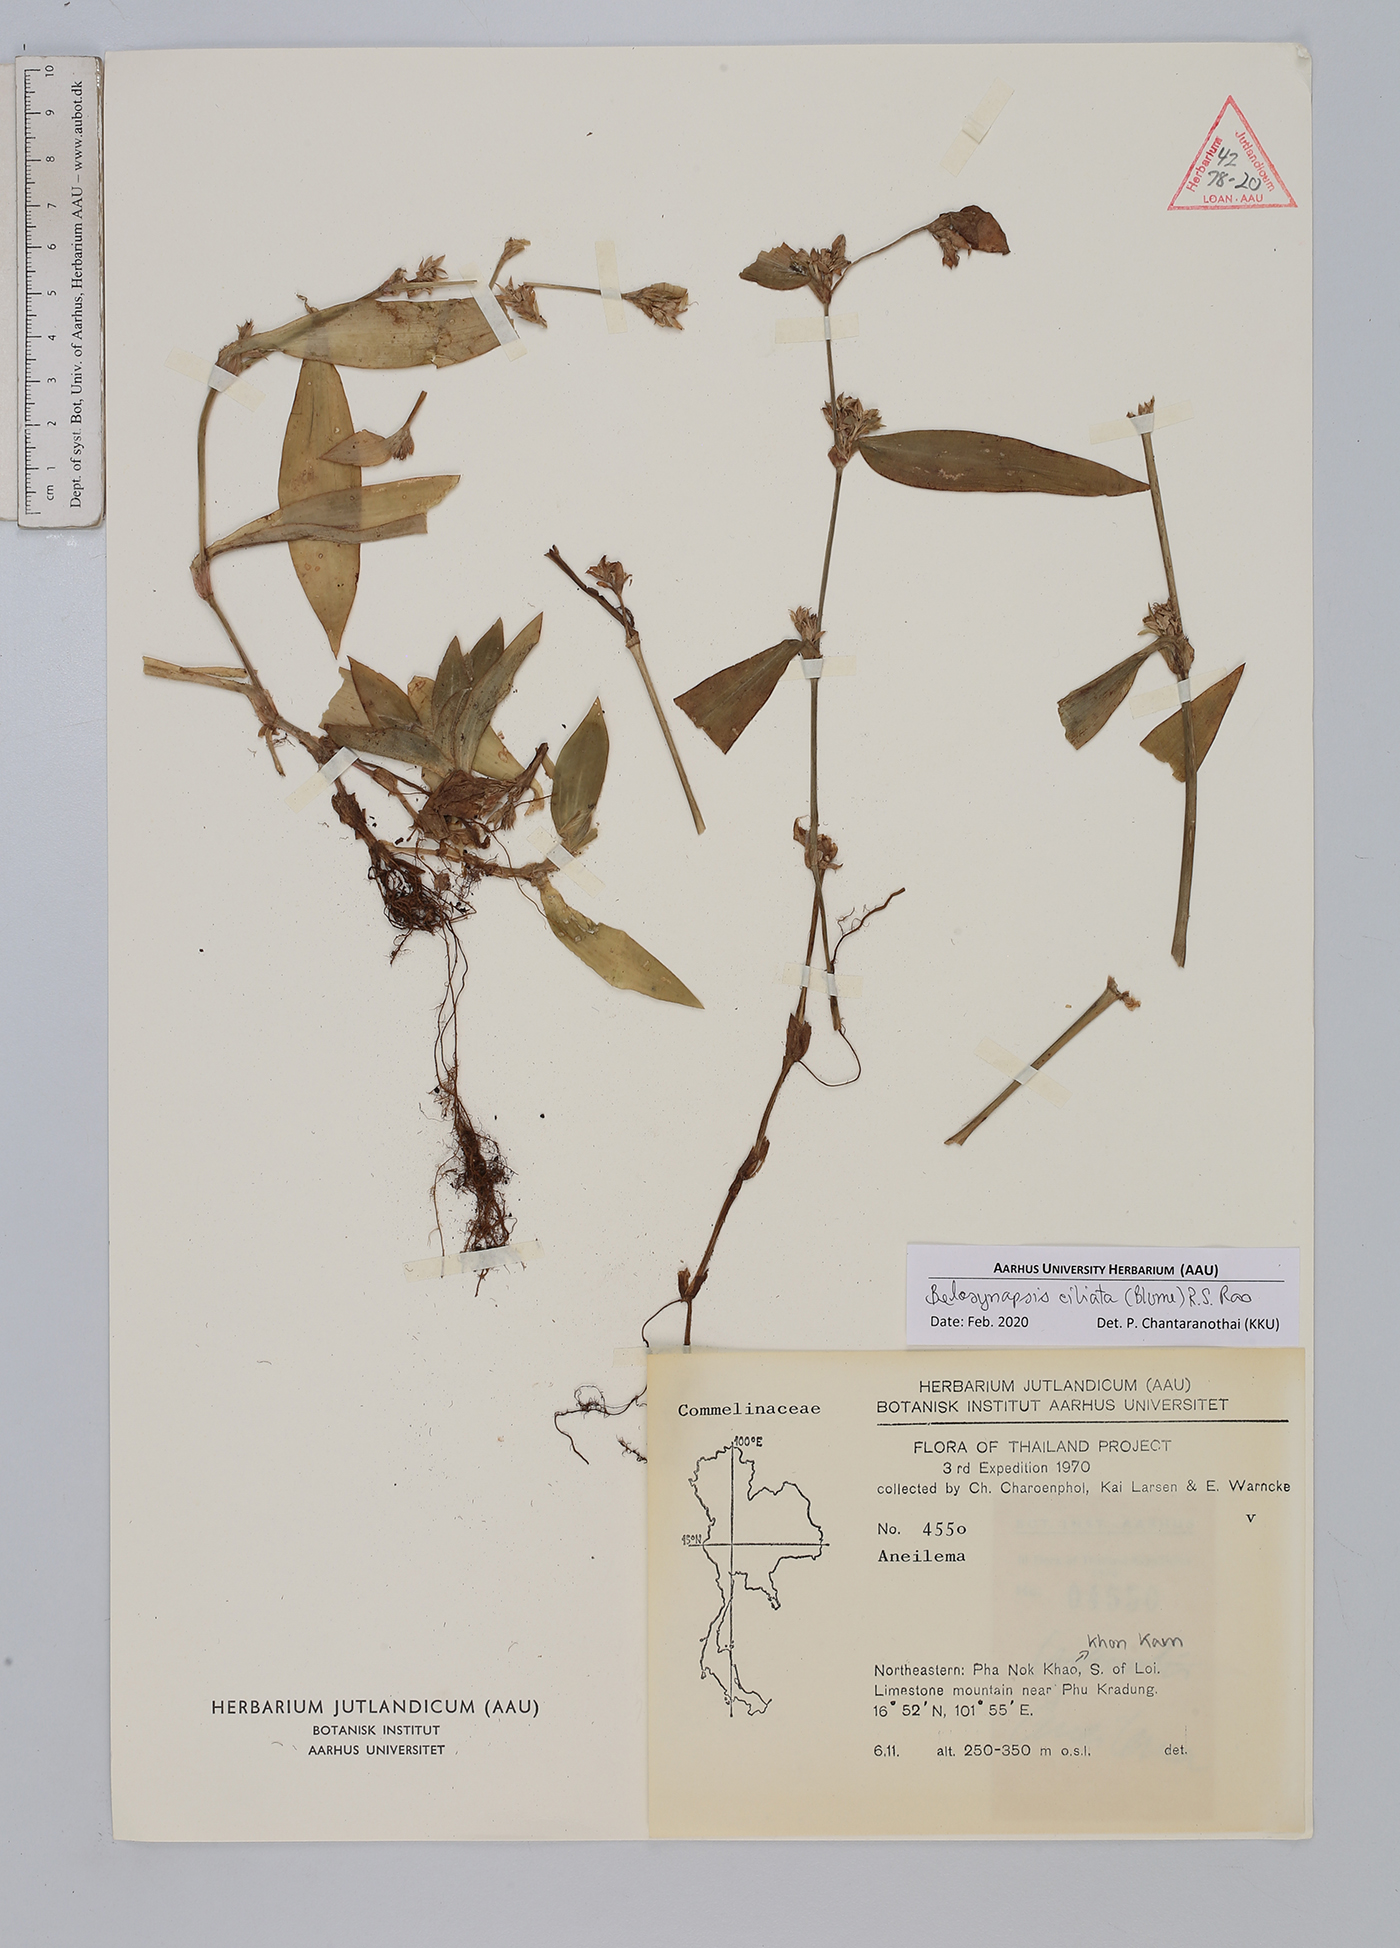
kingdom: Plantae
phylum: Tracheophyta
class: Liliopsida
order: Commelinales
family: Commelinaceae
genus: Cyanotis
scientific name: Cyanotis ciliata
